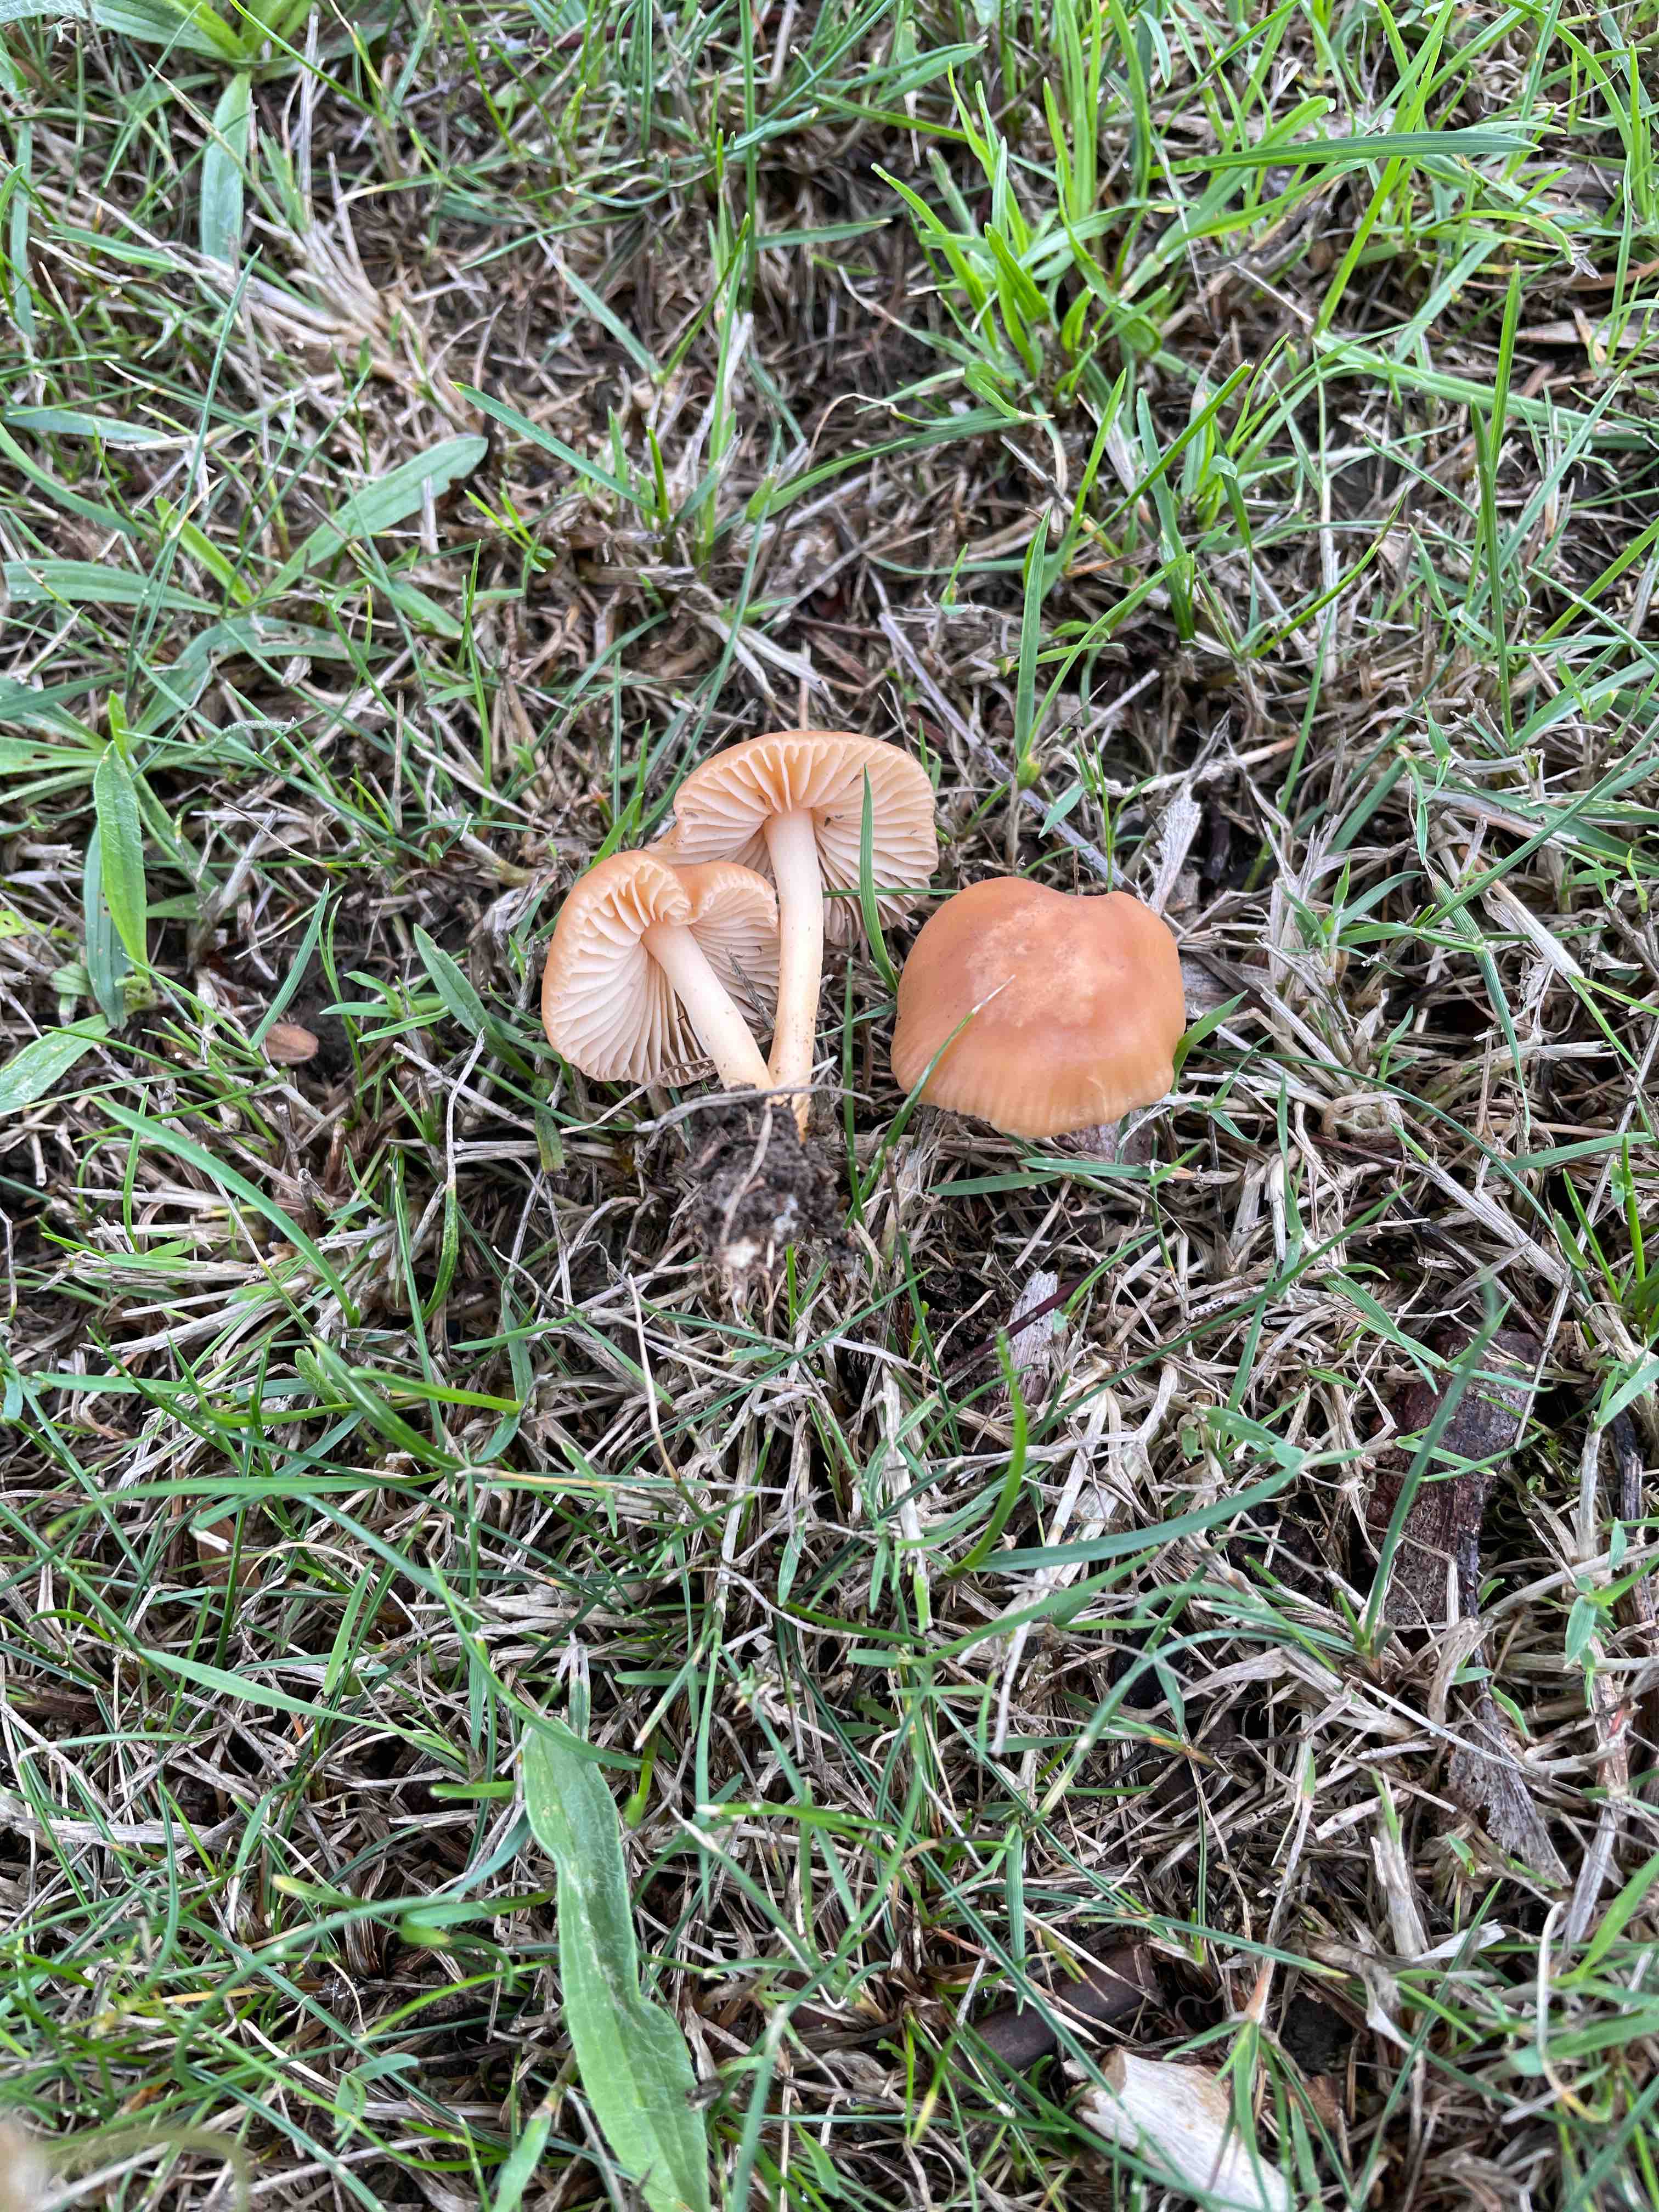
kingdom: Fungi
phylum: Basidiomycota
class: Agaricomycetes
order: Agaricales
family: Marasmiaceae
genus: Marasmius
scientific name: Marasmius oreades
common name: elledans-bruskhat
